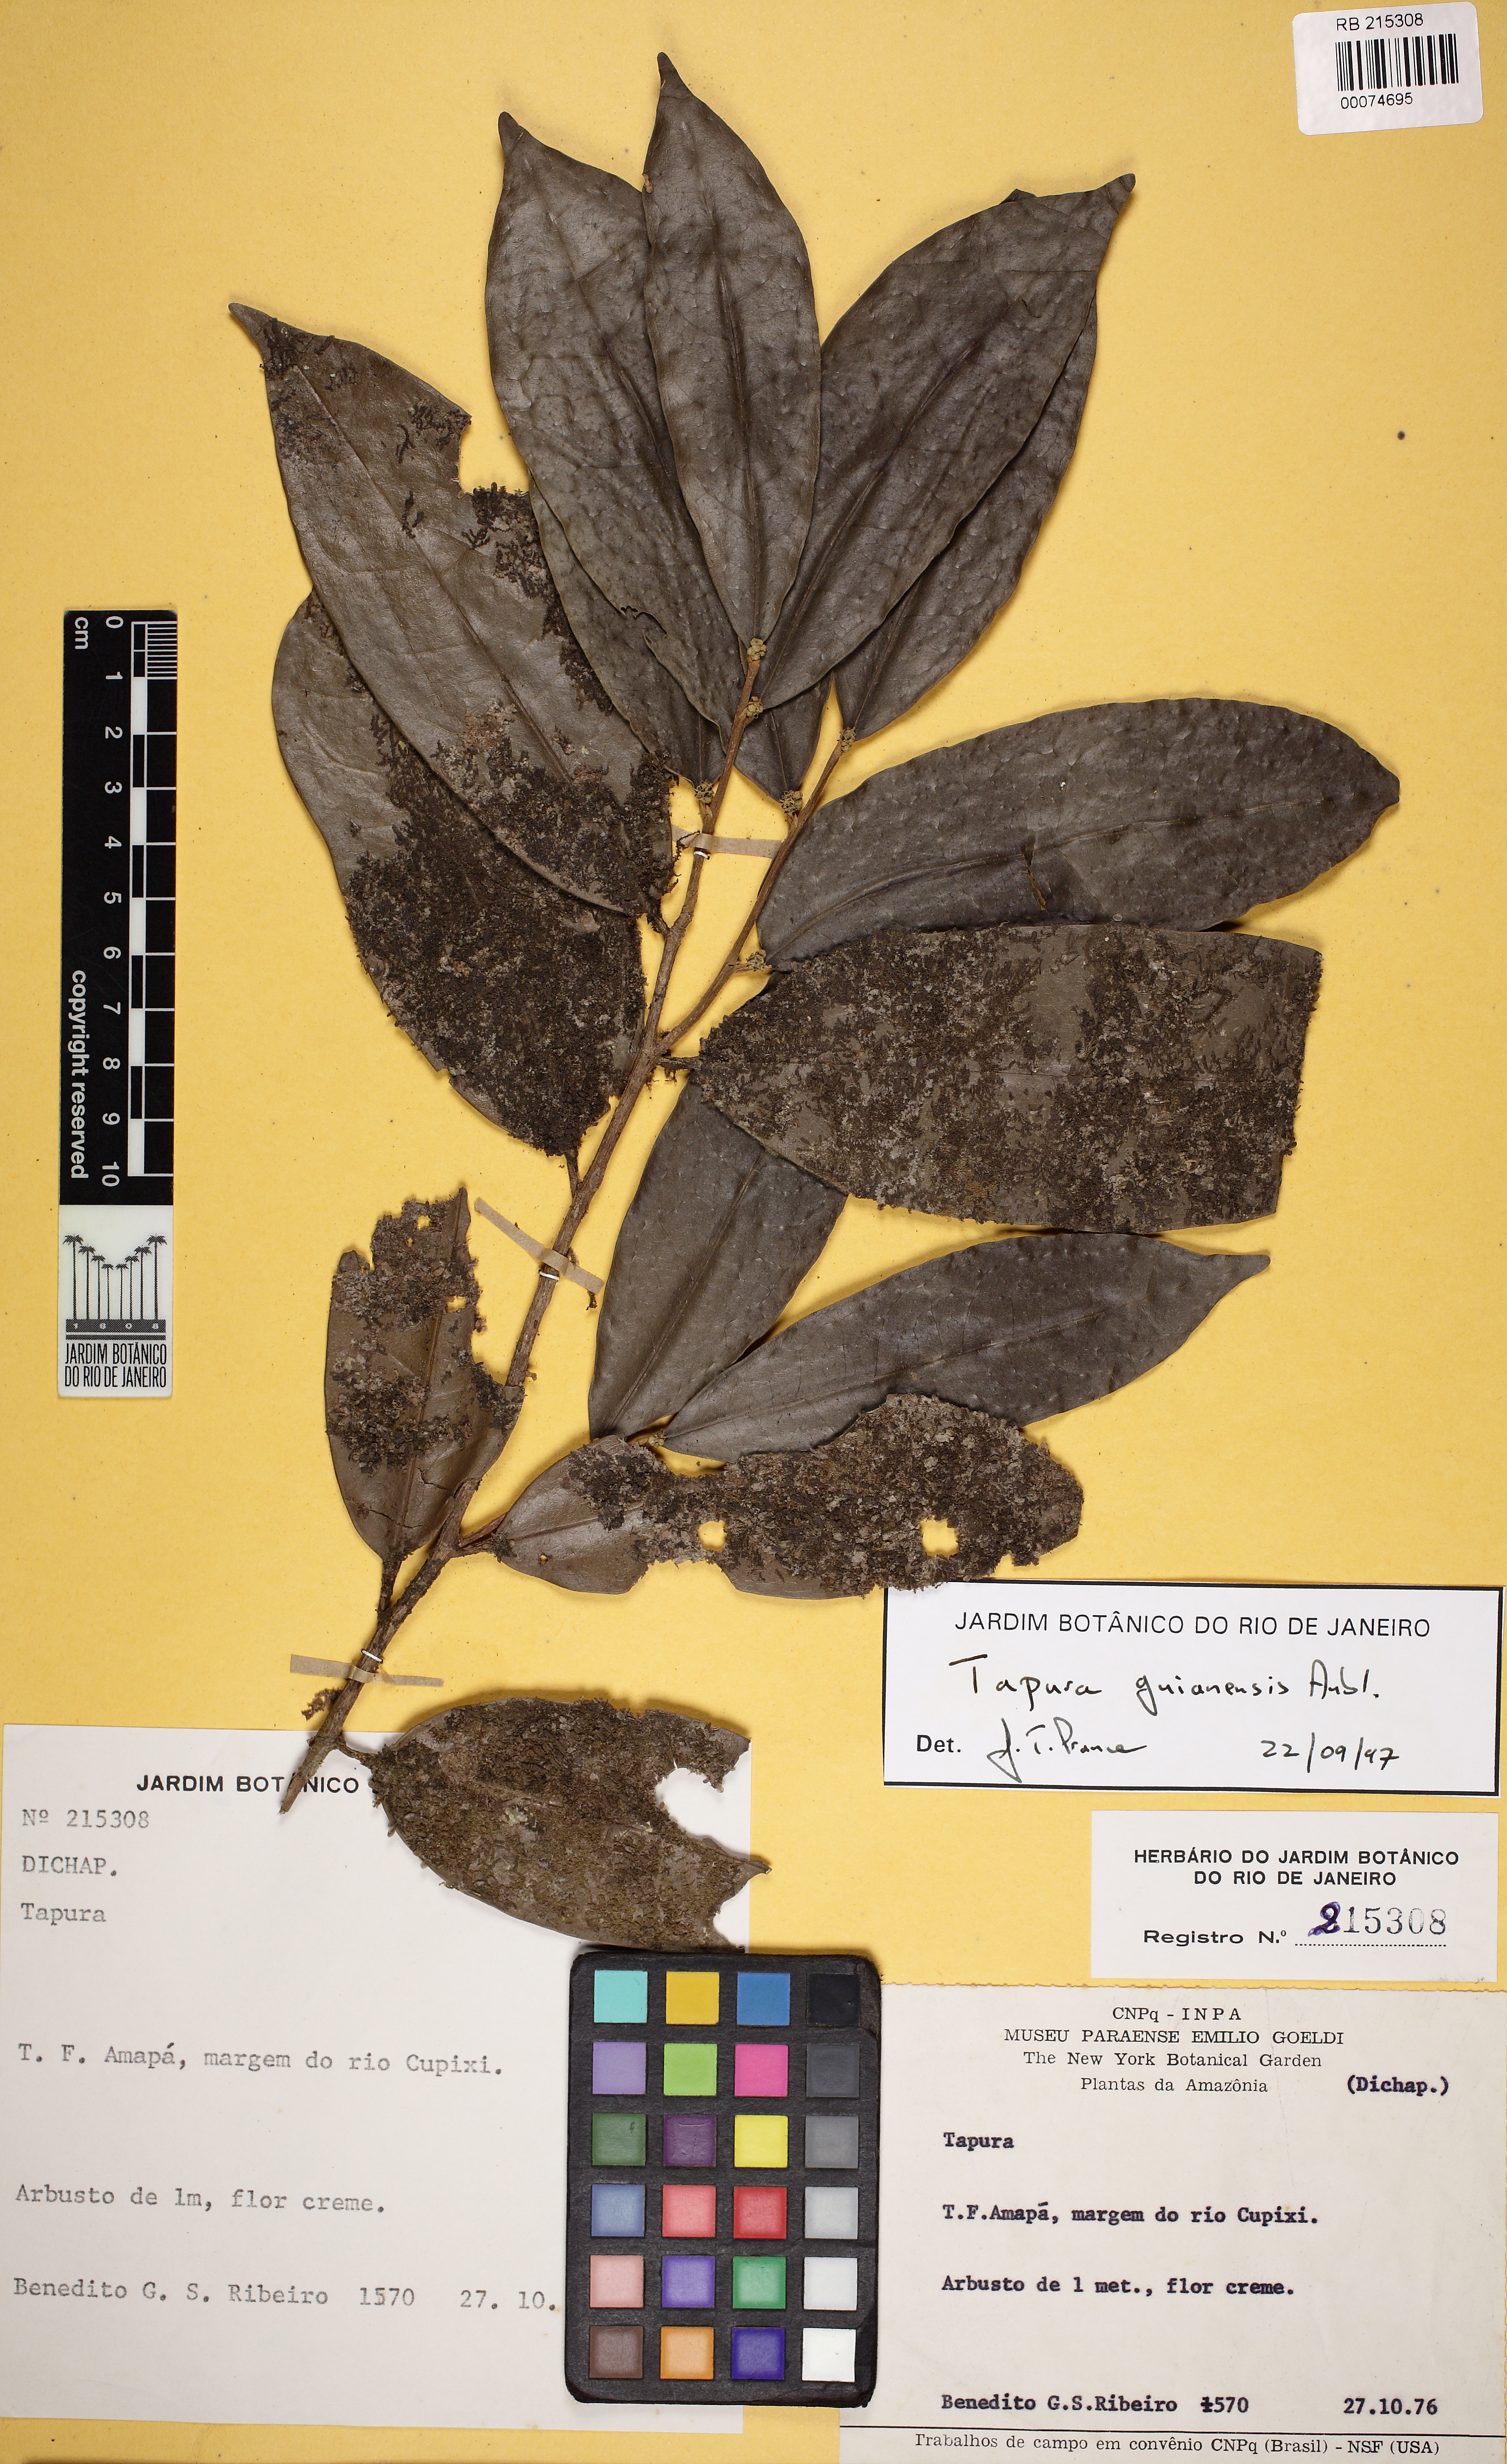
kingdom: Plantae
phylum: Tracheophyta
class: Magnoliopsida
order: Malpighiales
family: Dichapetalaceae
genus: Tapura
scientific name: Tapura guianensis
